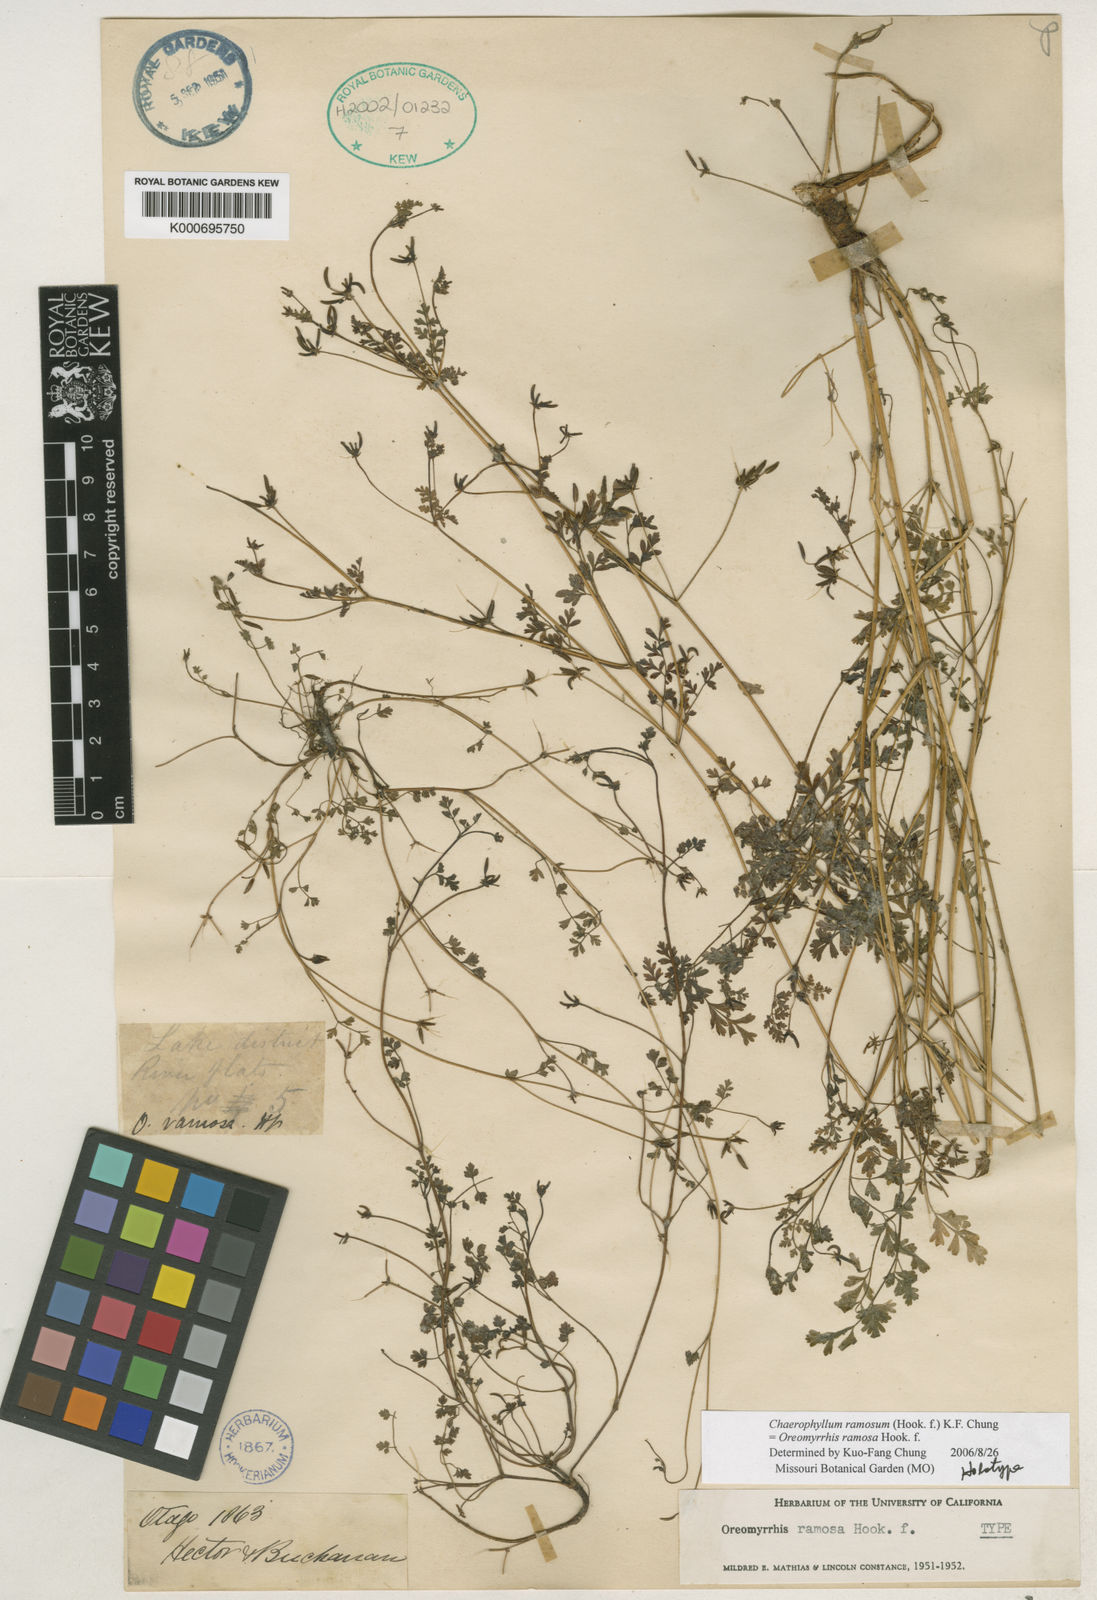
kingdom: Plantae
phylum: Tracheophyta
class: Magnoliopsida
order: Apiales
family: Apiaceae
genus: Chaerophyllum
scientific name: Chaerophyllum ramosum
